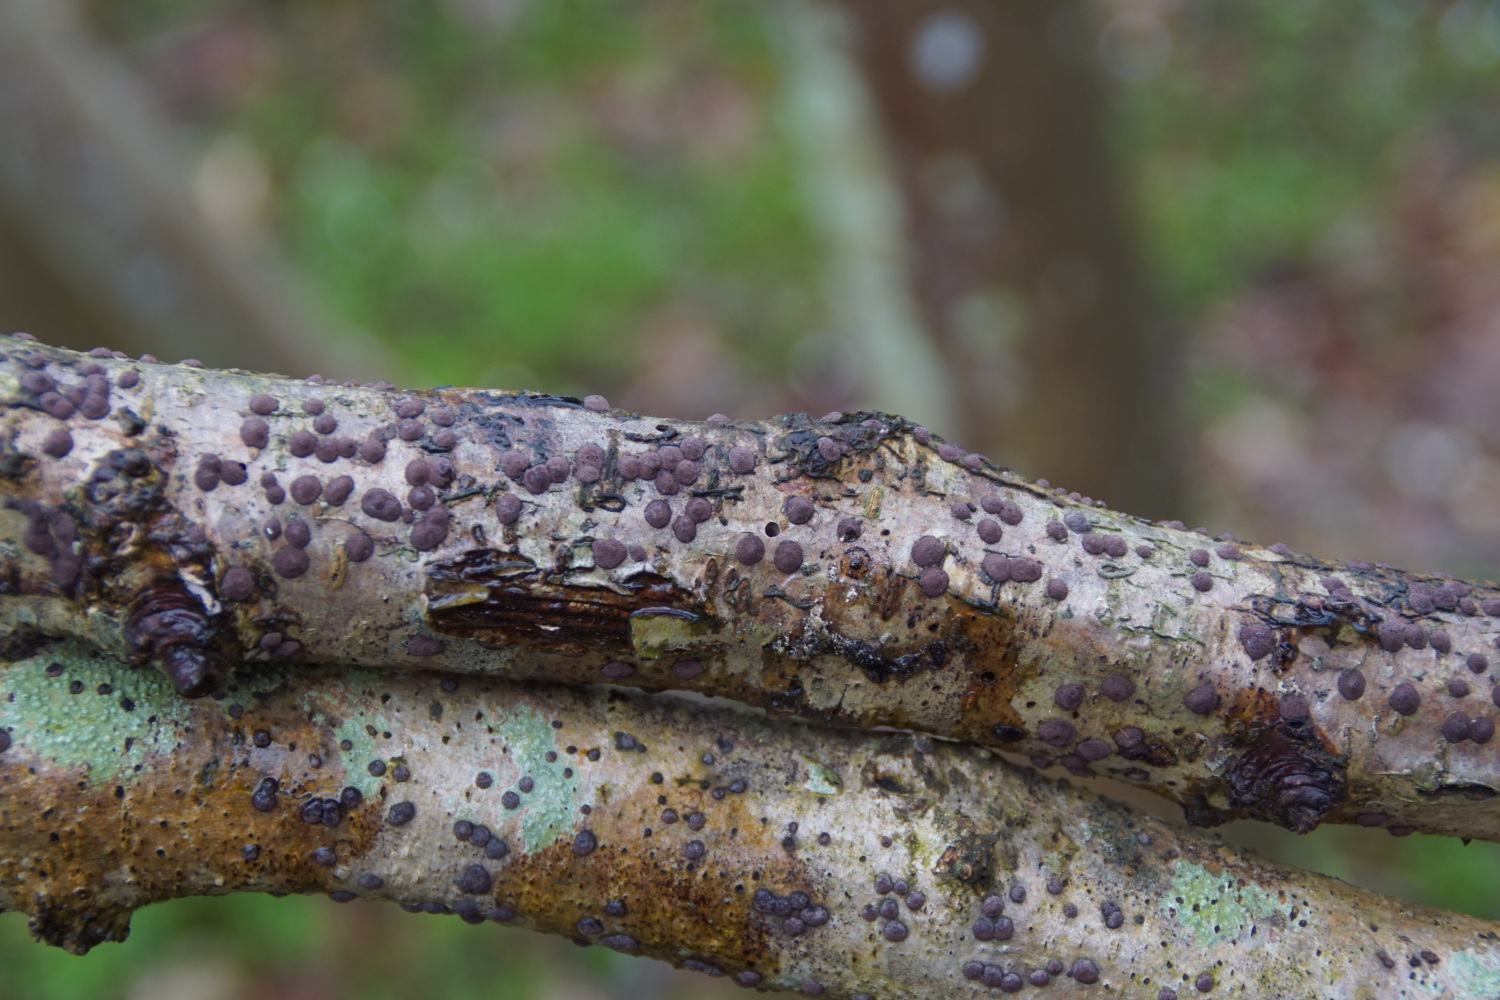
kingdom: Fungi
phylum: Ascomycota
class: Sordariomycetes
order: Xylariales
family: Hypoxylaceae
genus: Hypoxylon
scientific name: Hypoxylon fuscum
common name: kegleformet kulbær
